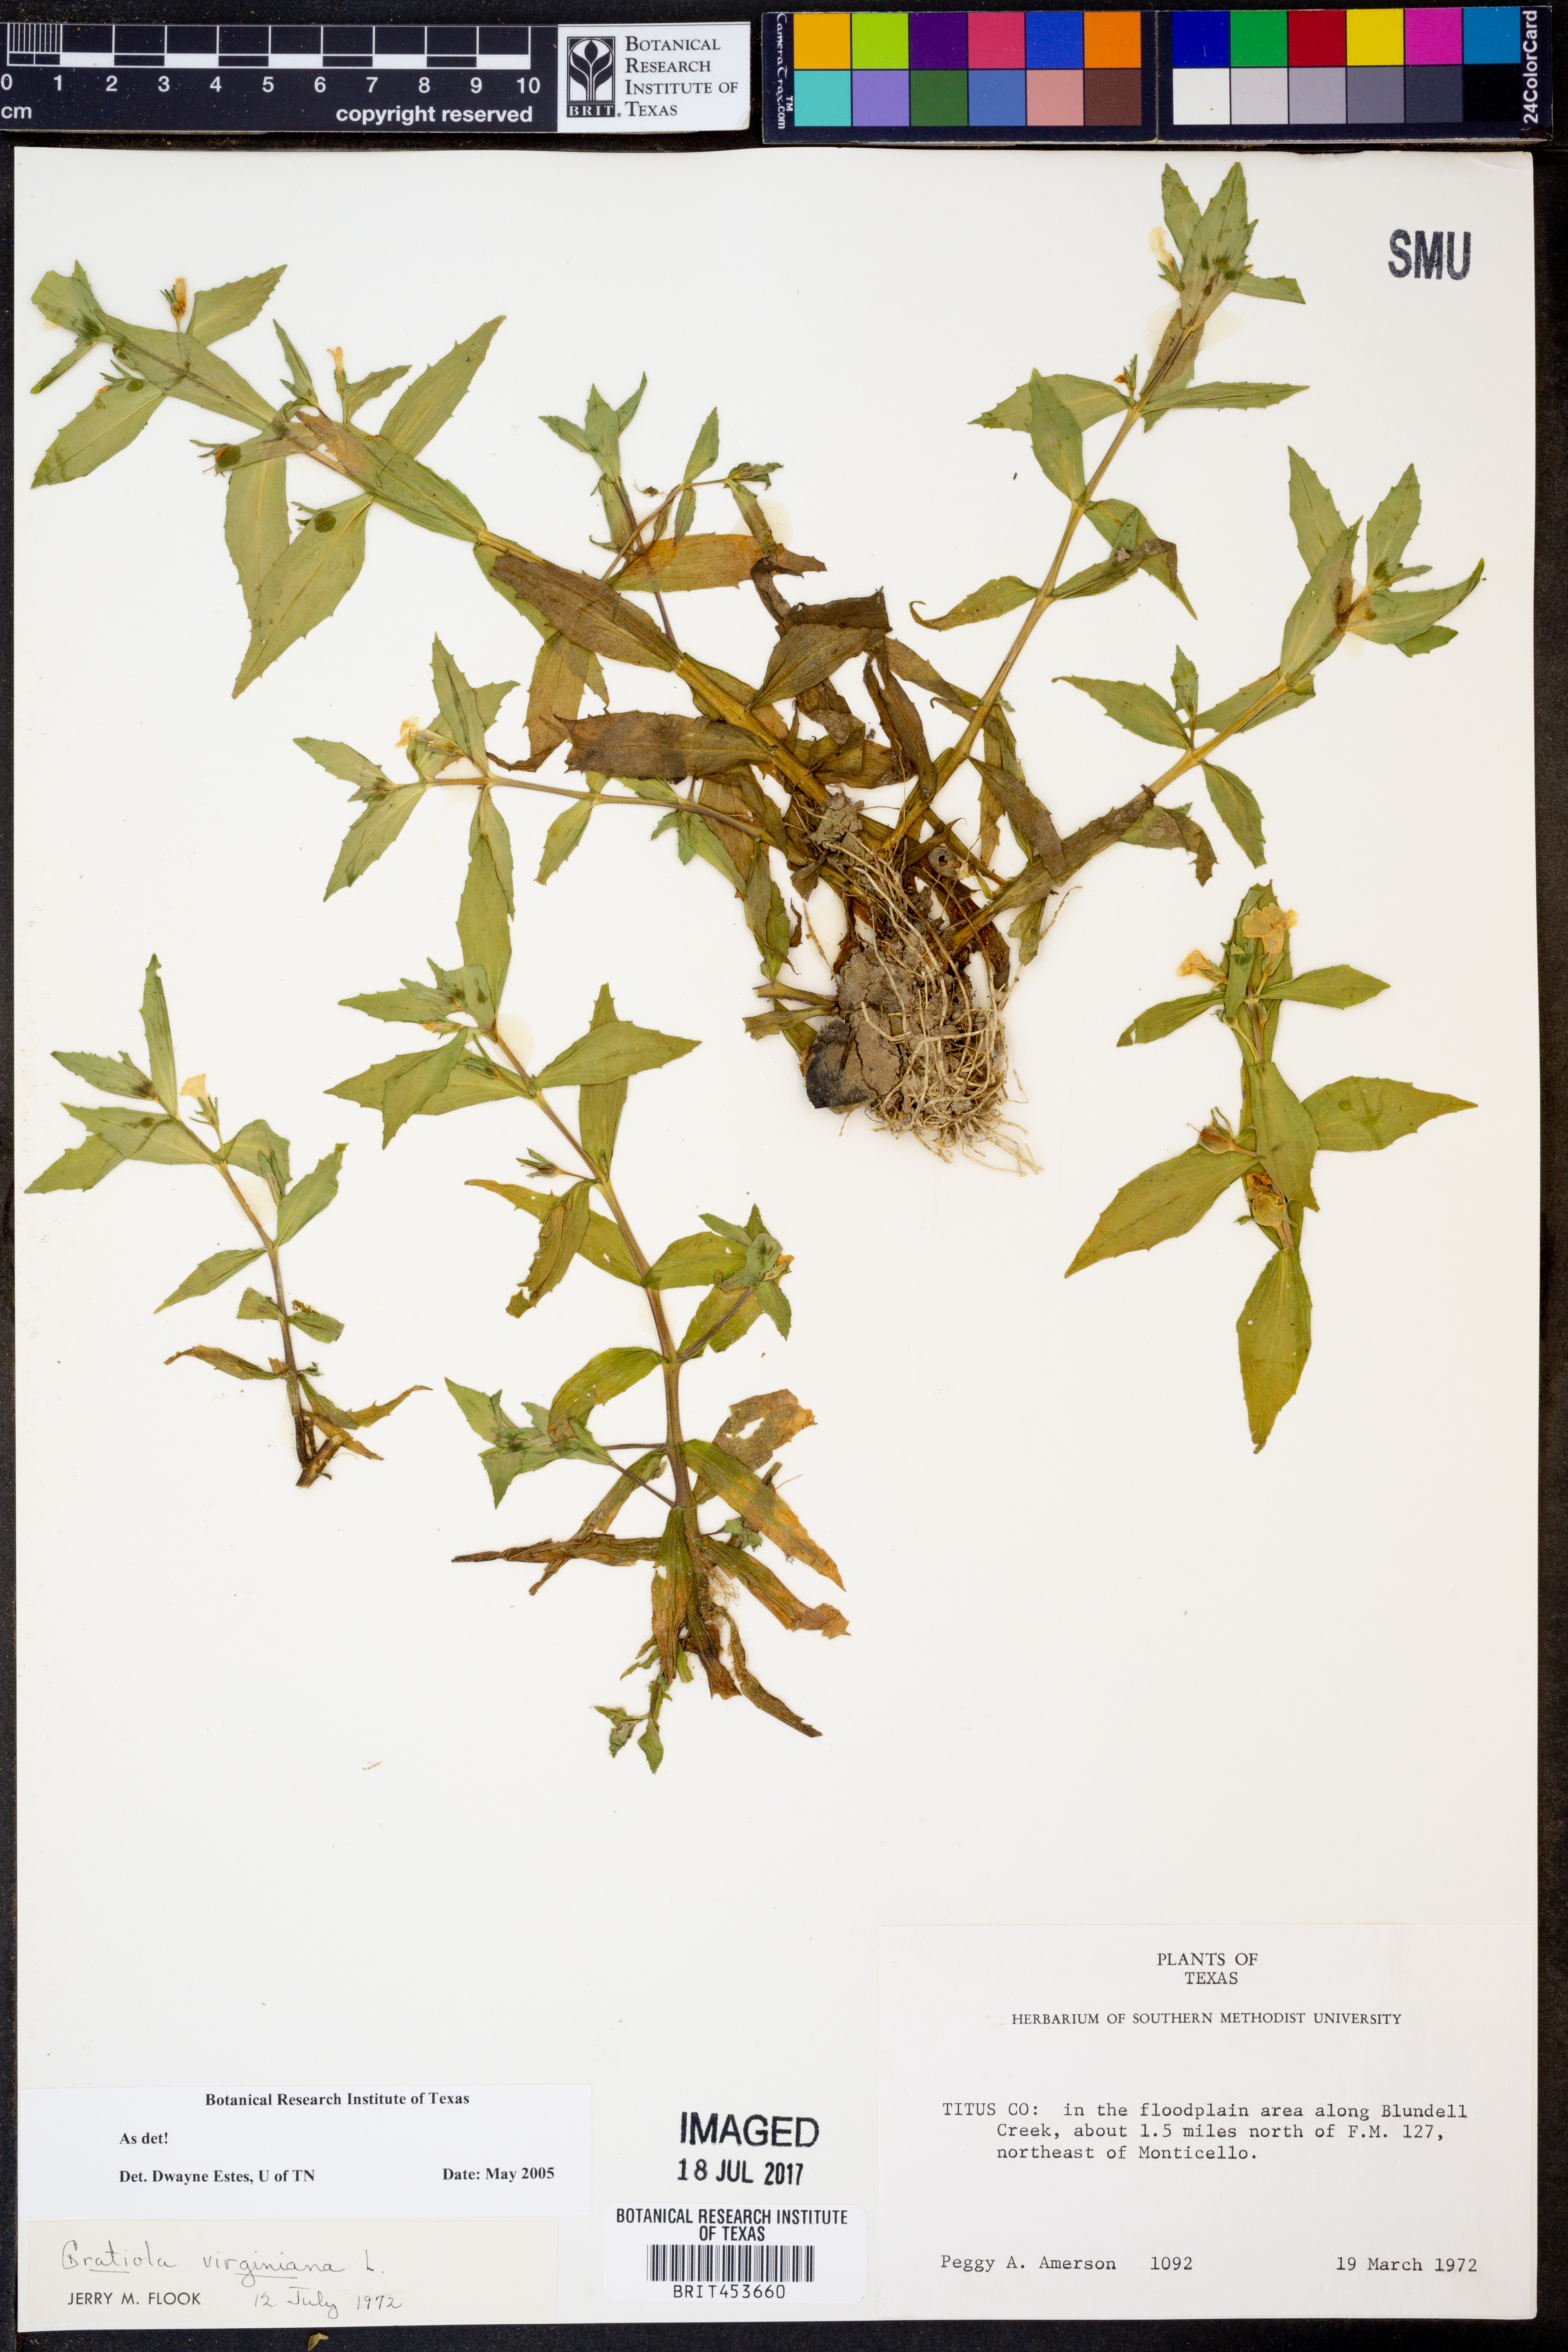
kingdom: Plantae
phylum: Tracheophyta
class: Magnoliopsida
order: Lamiales
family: Plantaginaceae
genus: Gratiola
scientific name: Gratiola virginiana
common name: Roundfruit hedgehyssop
